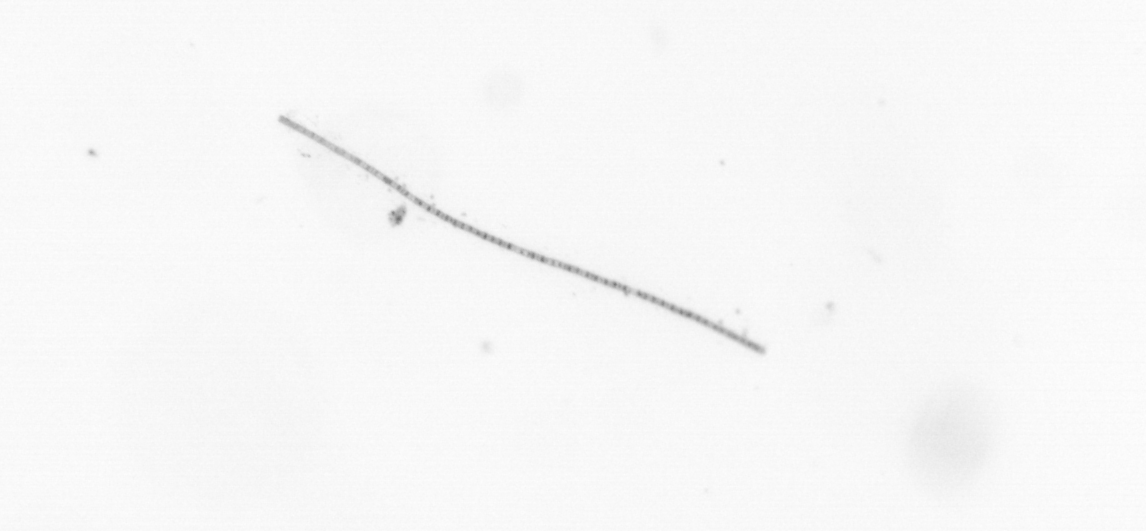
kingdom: Chromista
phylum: Ochrophyta
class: Bacillariophyceae
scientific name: Bacillariophyceae
